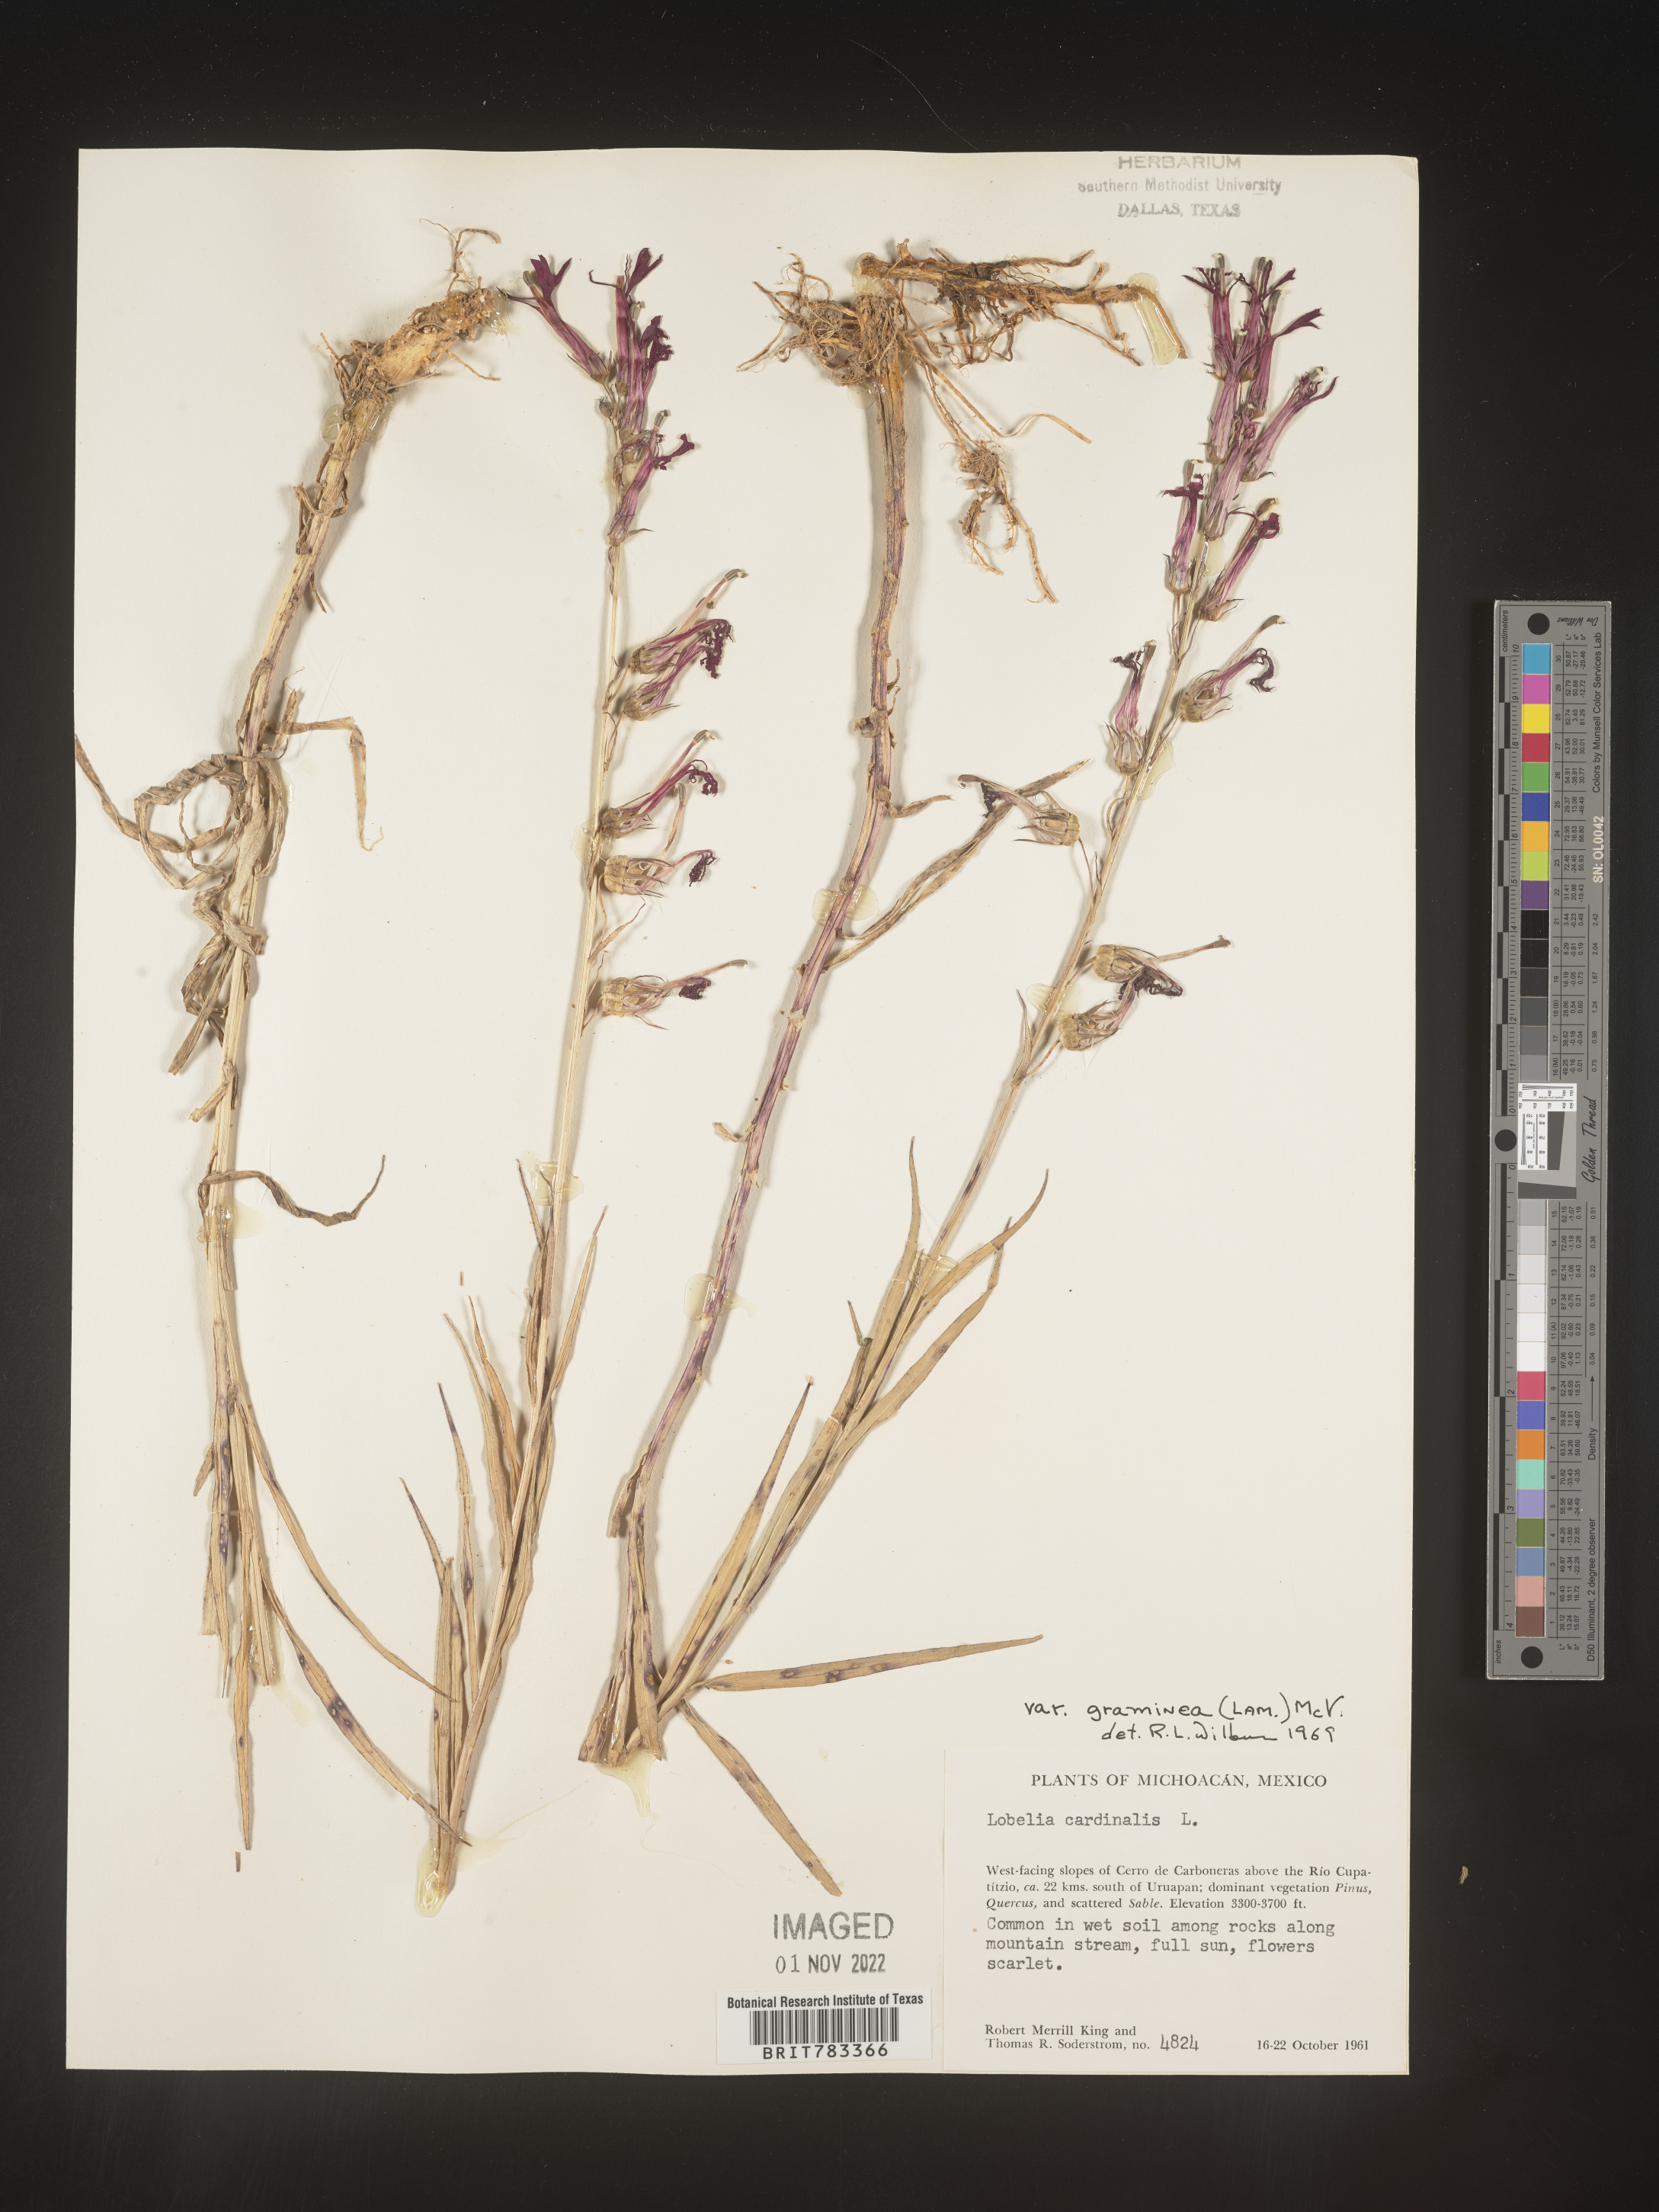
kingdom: Plantae
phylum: Tracheophyta
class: Magnoliopsida
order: Asterales
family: Campanulaceae
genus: Lobelia
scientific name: Lobelia
